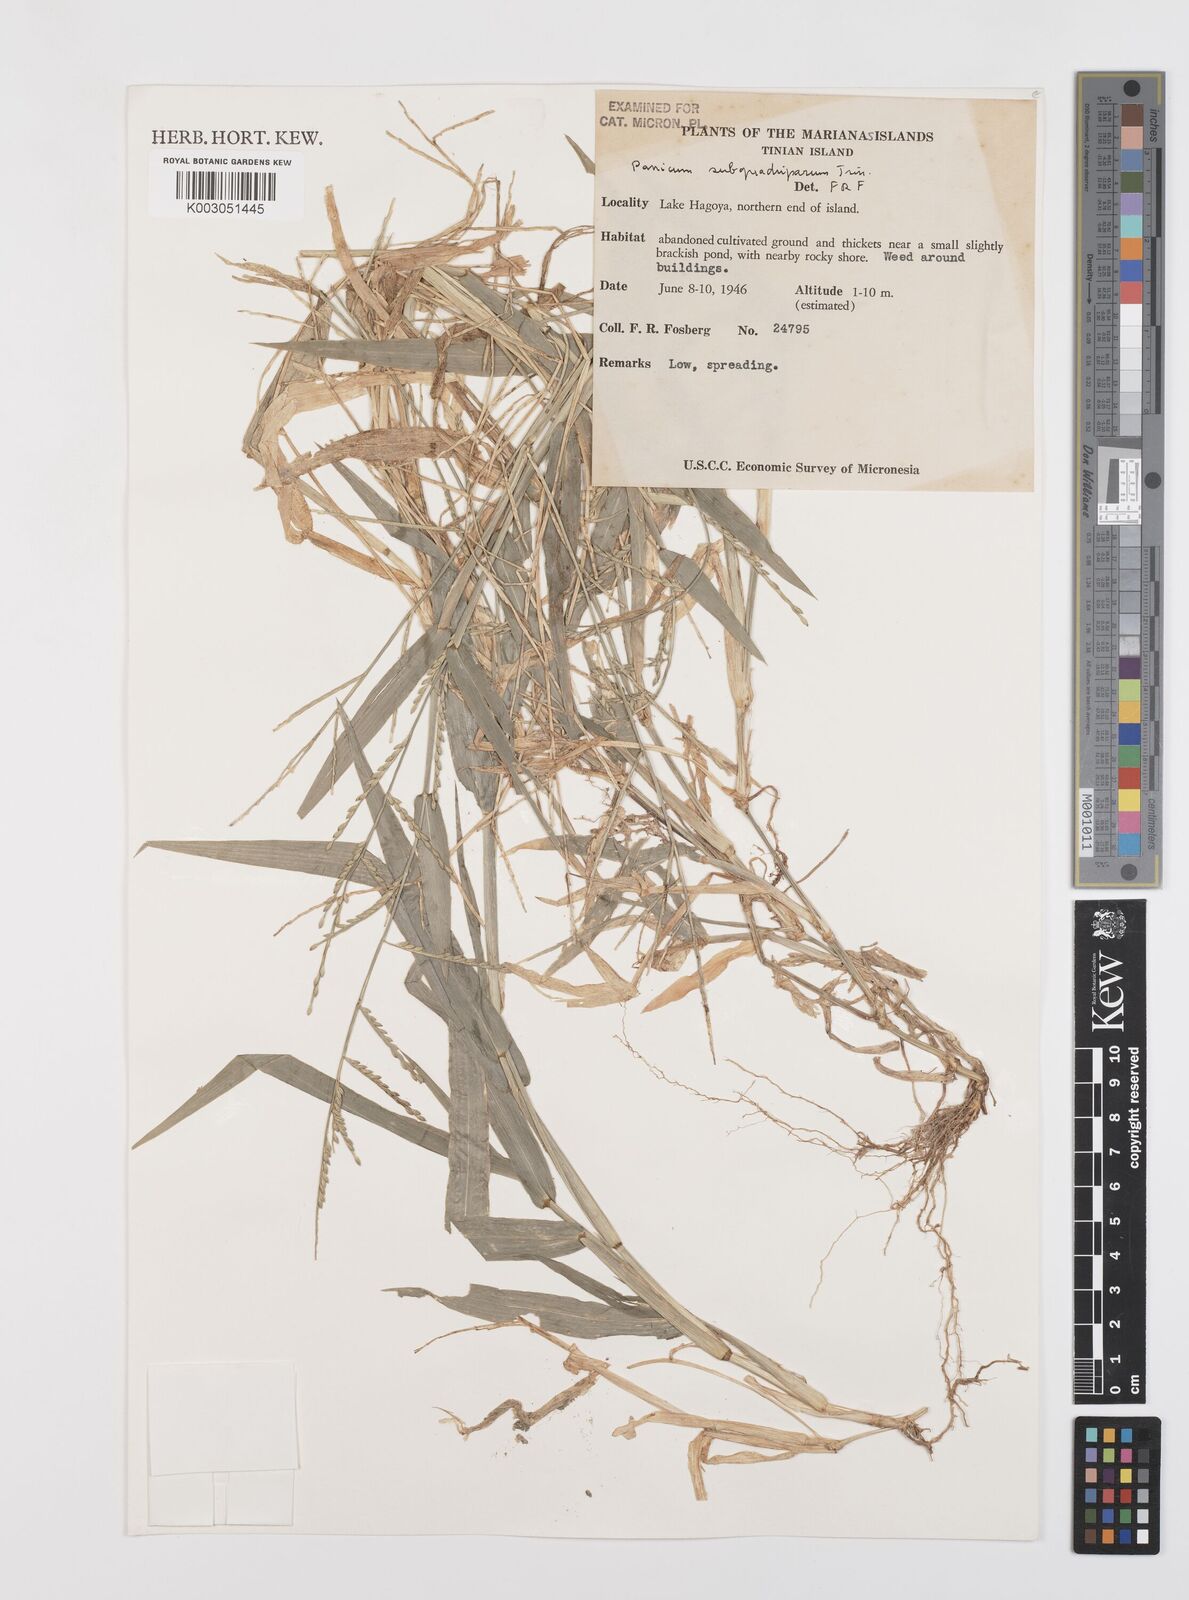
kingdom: Plantae
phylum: Tracheophyta
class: Liliopsida
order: Poales
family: Poaceae
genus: Urochloa
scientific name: Urochloa subquadripara
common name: Armgrass millet
